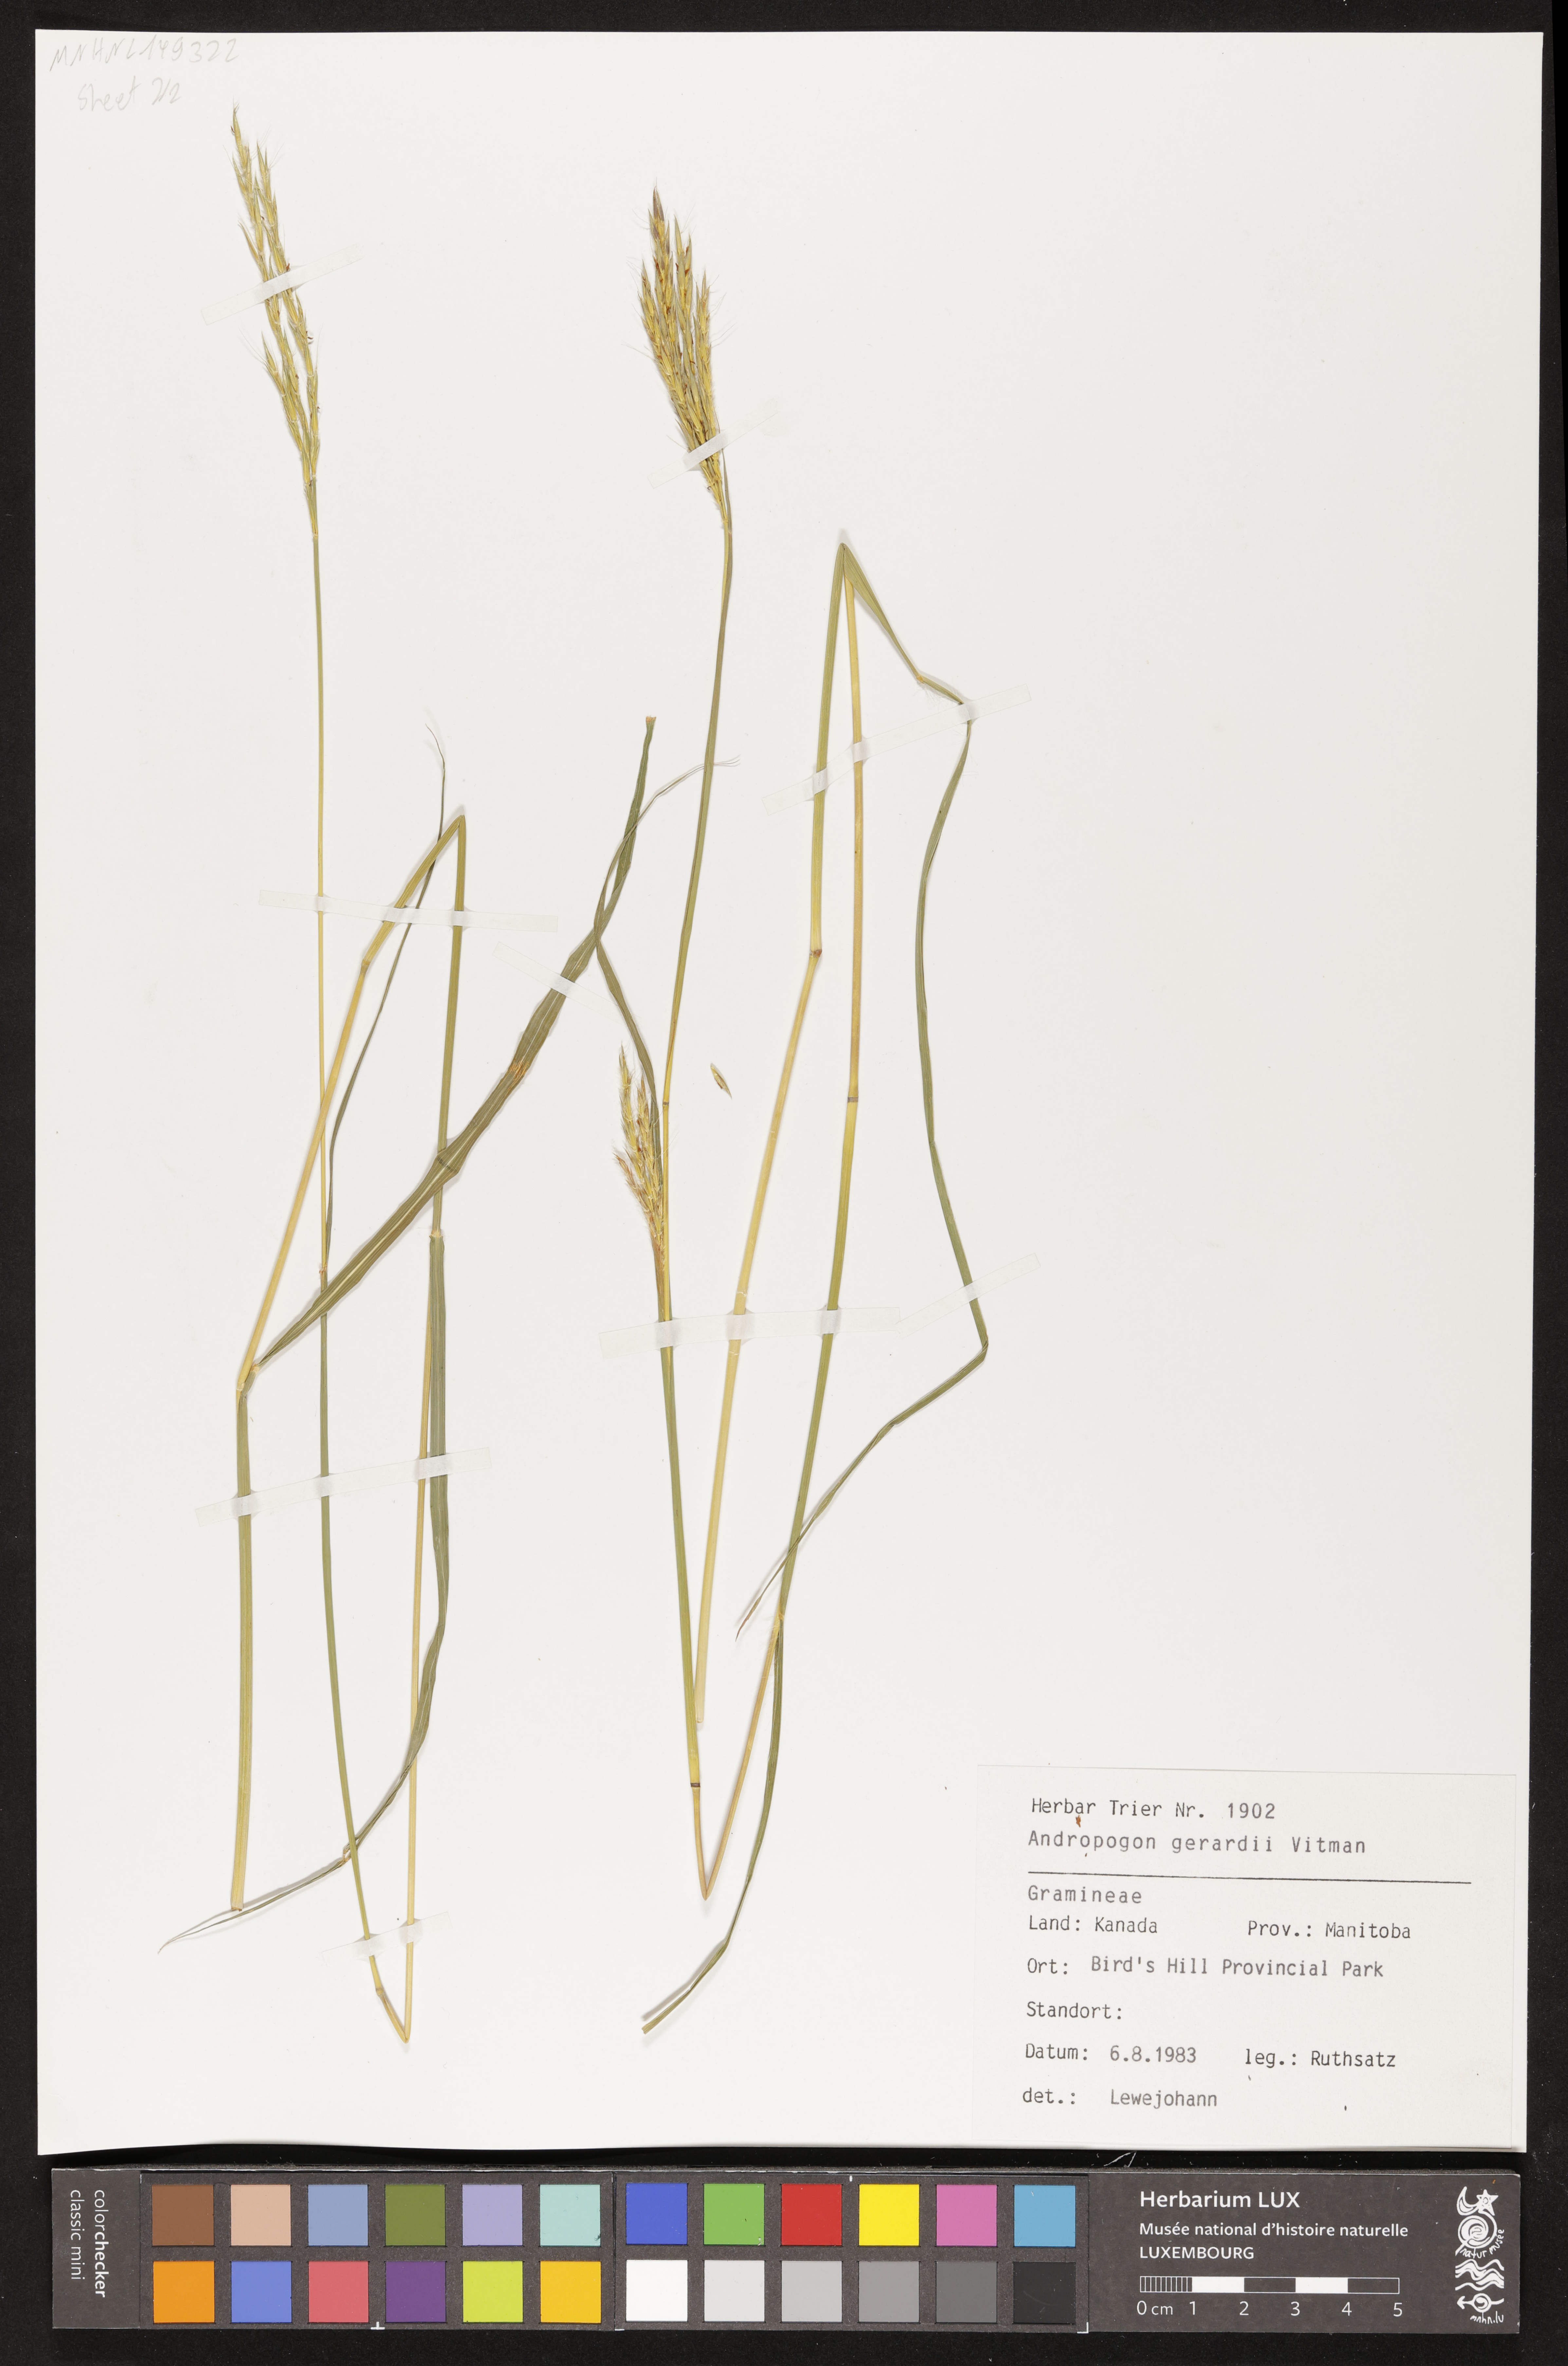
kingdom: Plantae
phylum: Tracheophyta
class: Liliopsida
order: Poales
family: Poaceae
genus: Andropogon
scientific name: Andropogon gerardi
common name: Big bluestem
